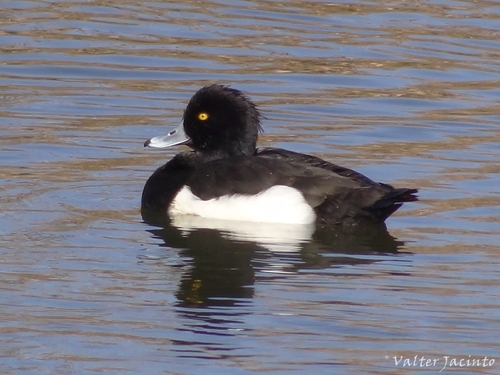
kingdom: Animalia
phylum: Chordata
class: Aves
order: Anseriformes
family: Anatidae
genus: Aythya
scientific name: Aythya fuligula
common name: Tufted duck
